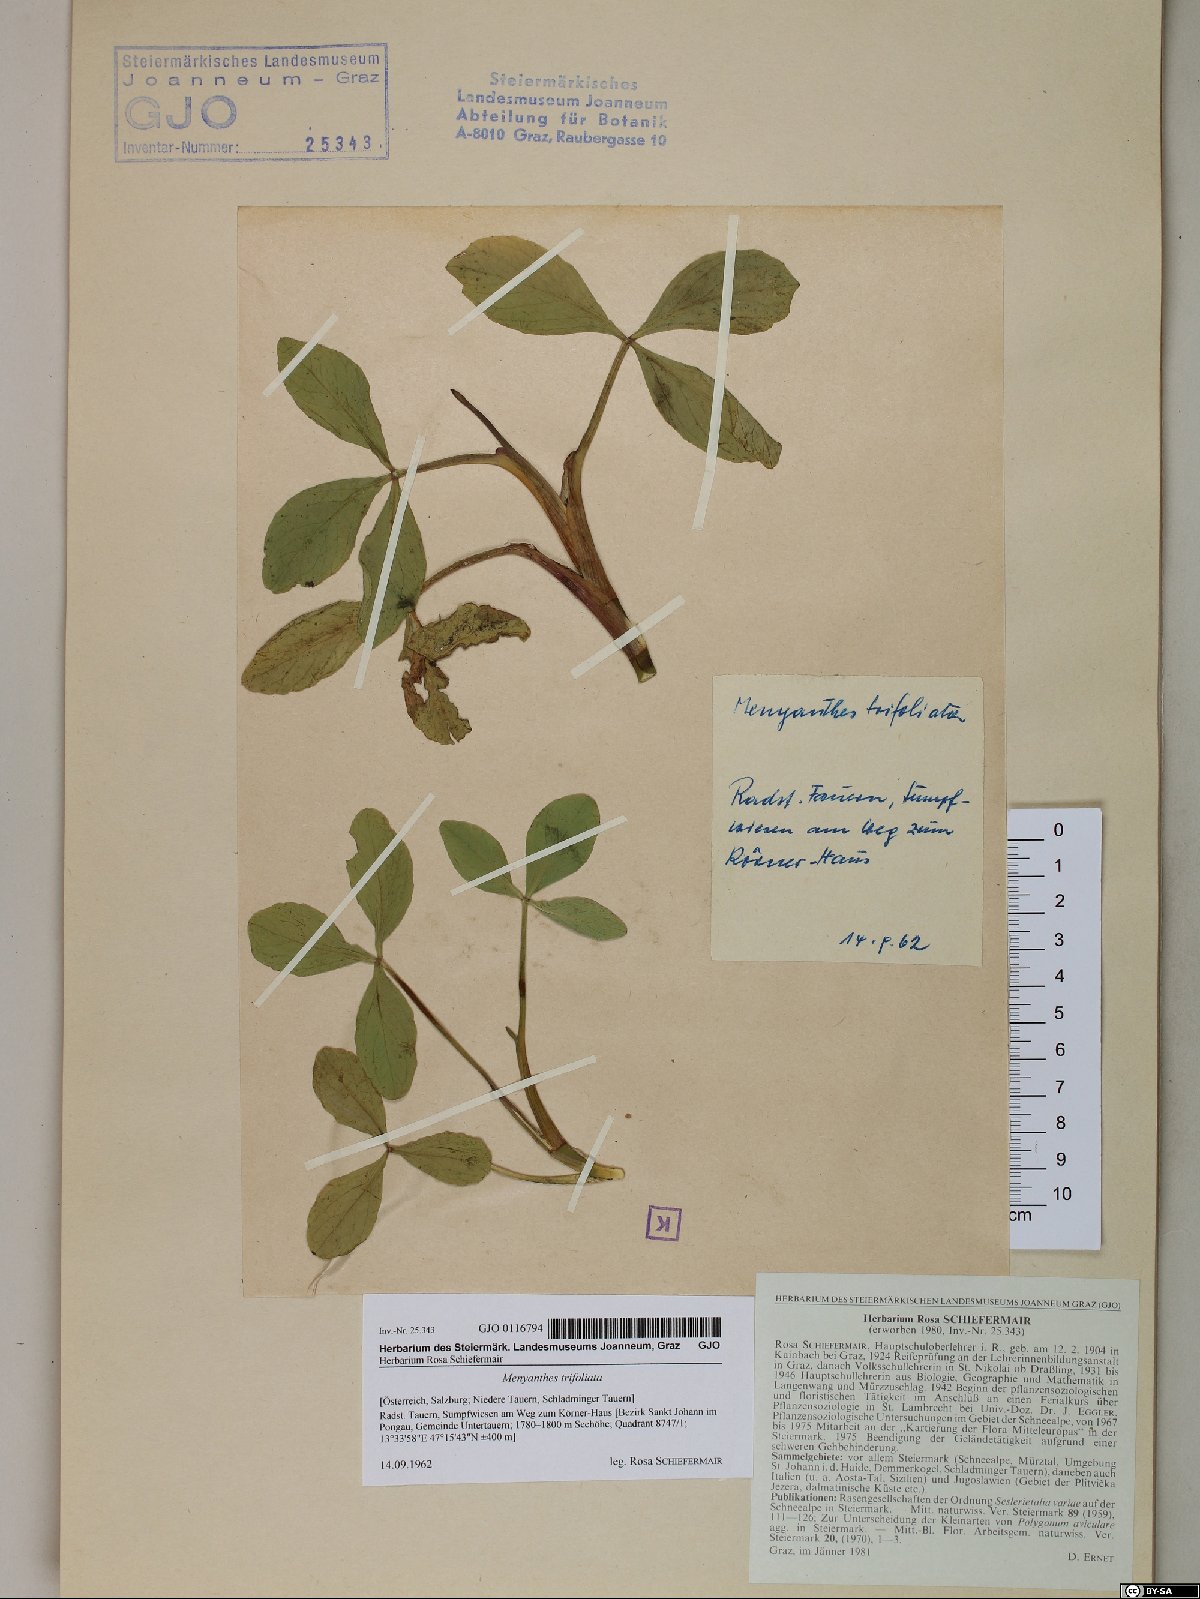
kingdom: Plantae
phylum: Tracheophyta
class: Magnoliopsida
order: Asterales
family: Menyanthaceae
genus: Menyanthes
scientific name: Menyanthes trifoliata
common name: Bogbean
